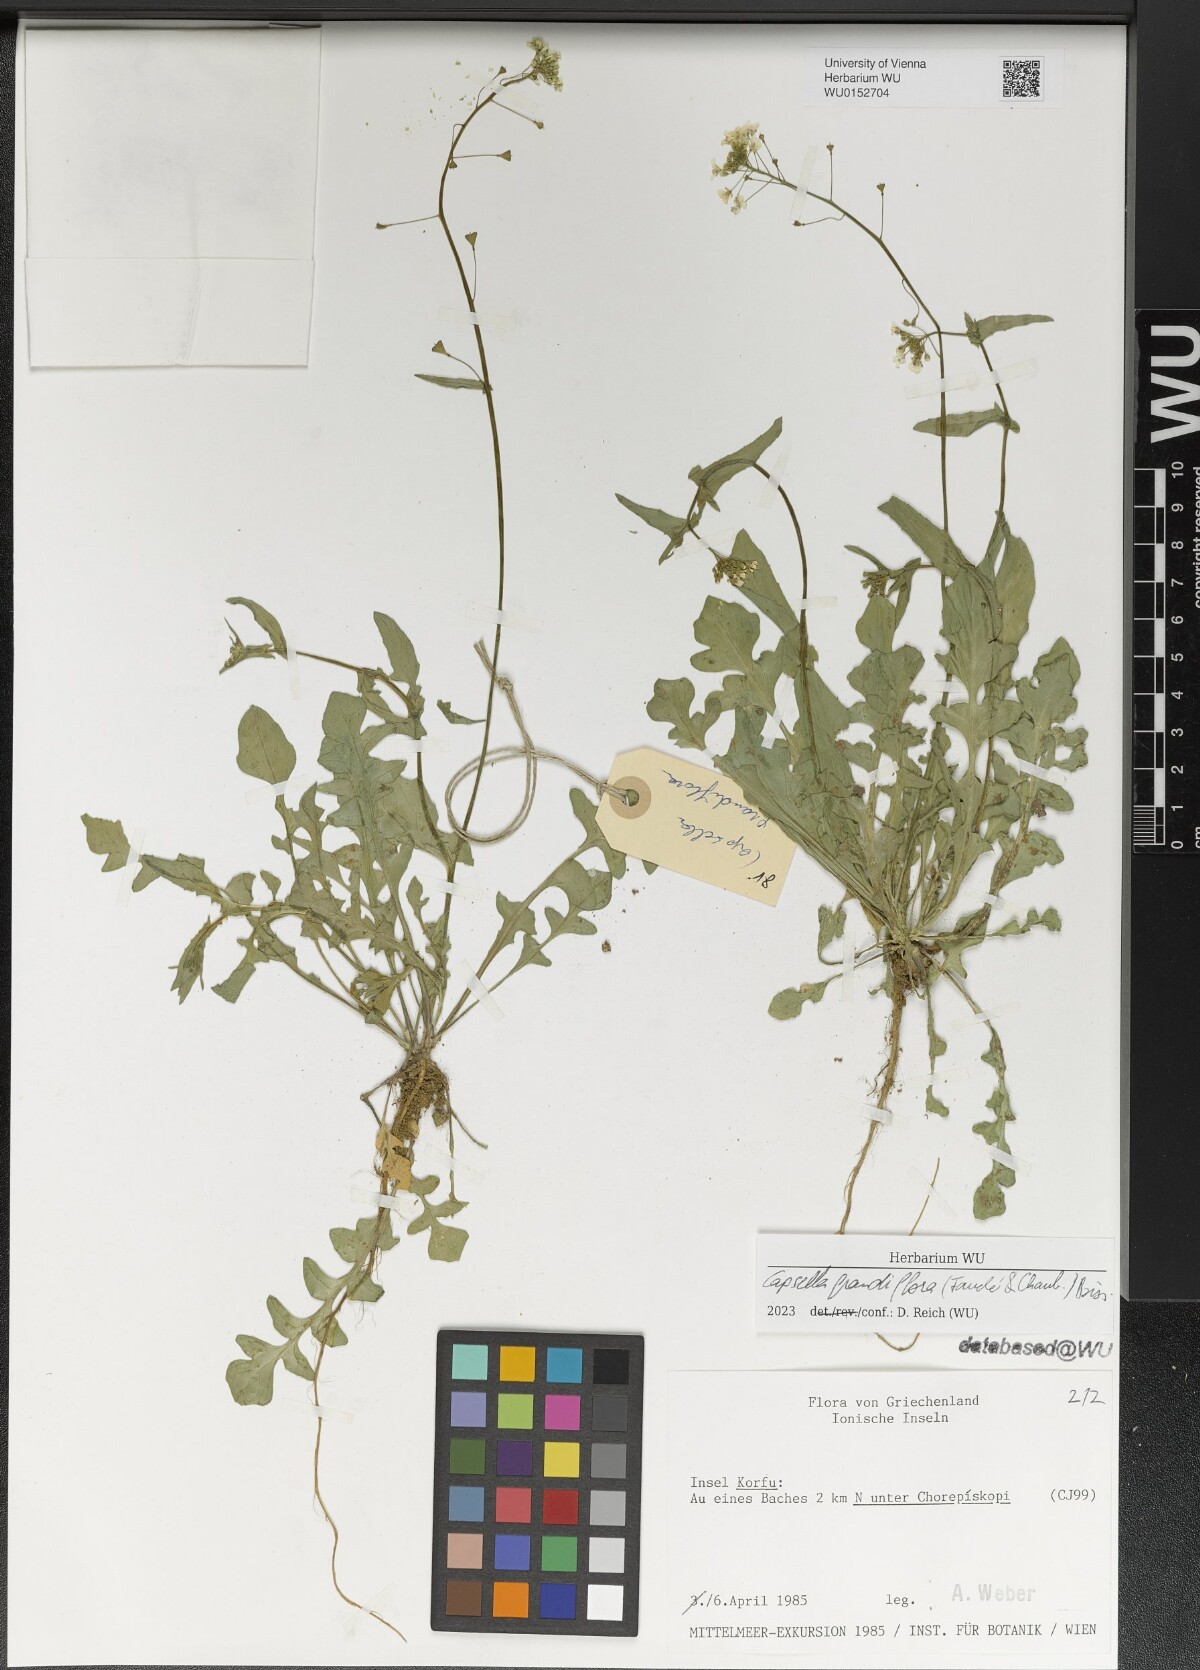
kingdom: Plantae
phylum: Tracheophyta
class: Magnoliopsida
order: Brassicales
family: Brassicaceae
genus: Capsella
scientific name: Capsella grandiflora
